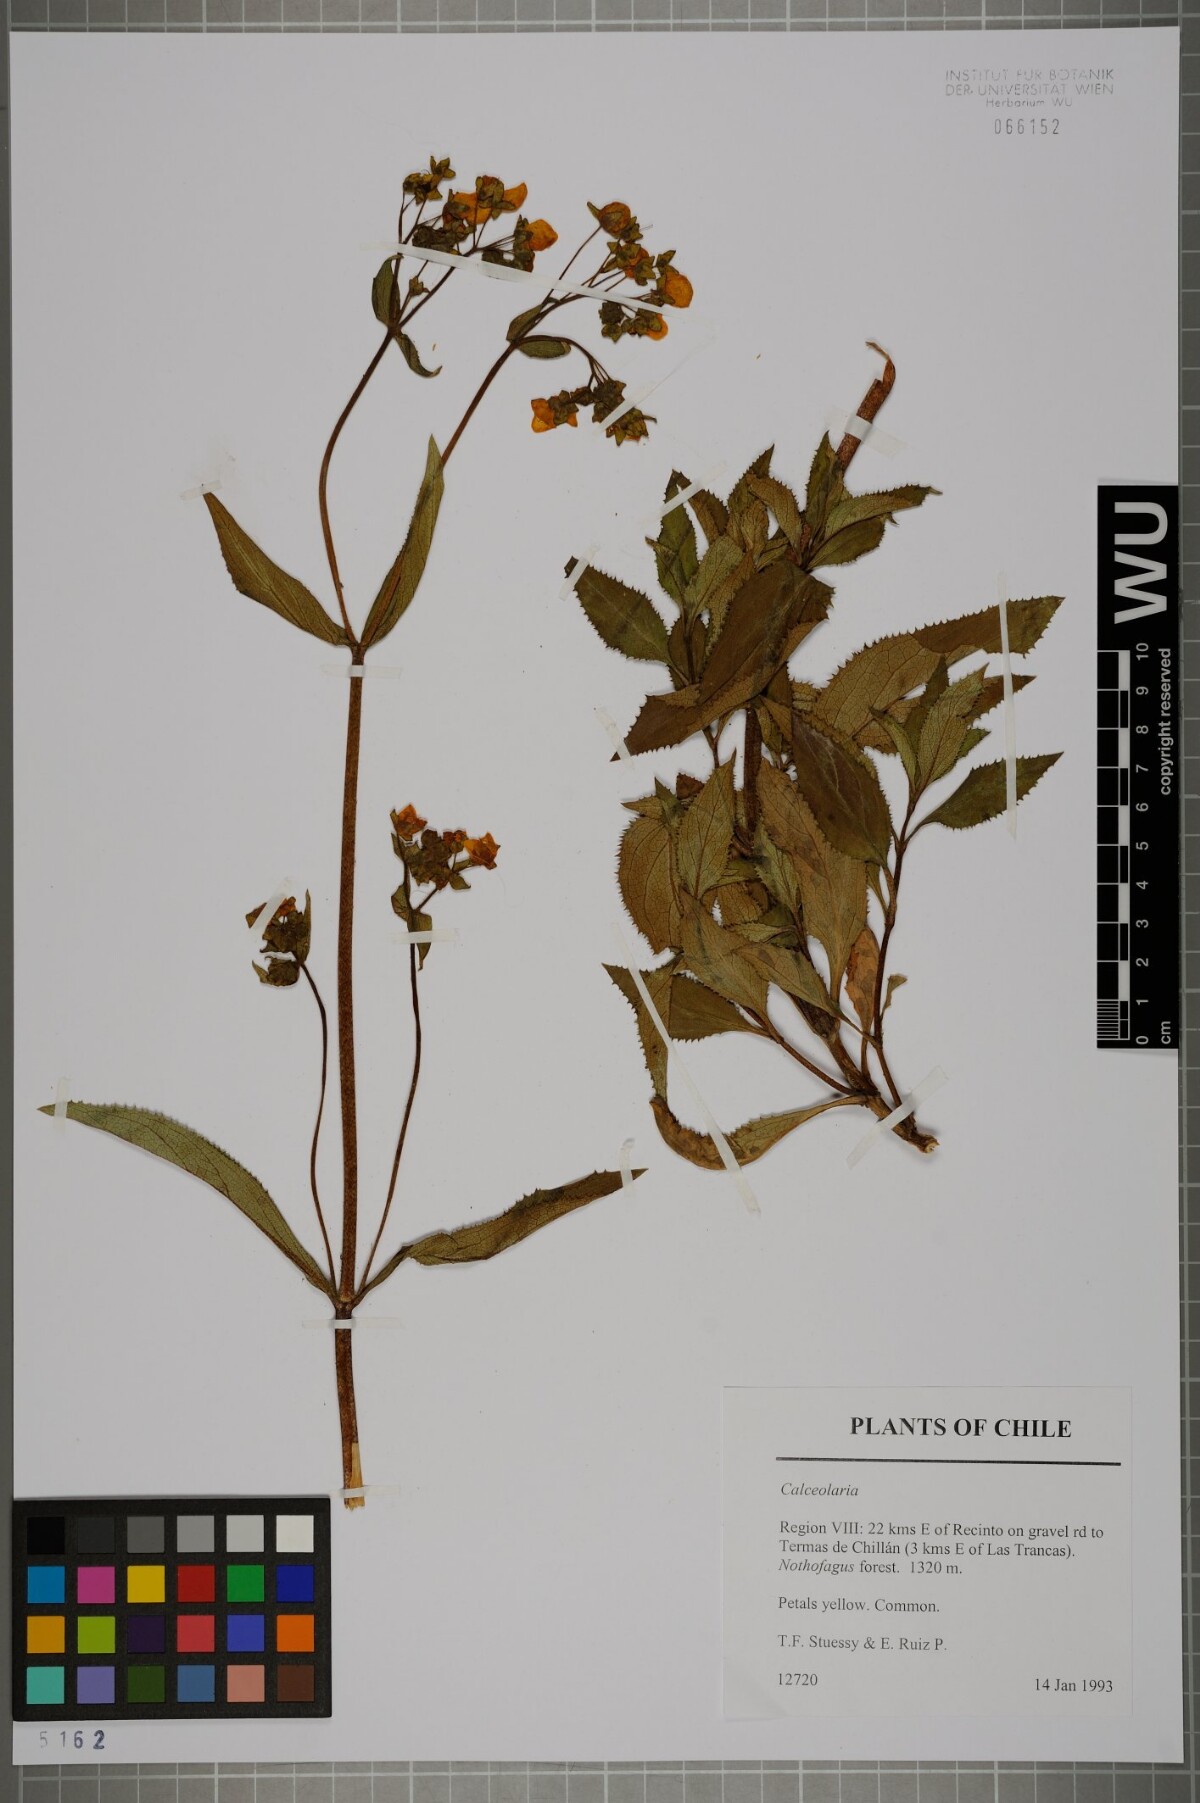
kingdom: Plantae
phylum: Tracheophyta
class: Magnoliopsida
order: Lamiales
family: Calceolariaceae
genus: Calceolaria
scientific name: Calceolaria
